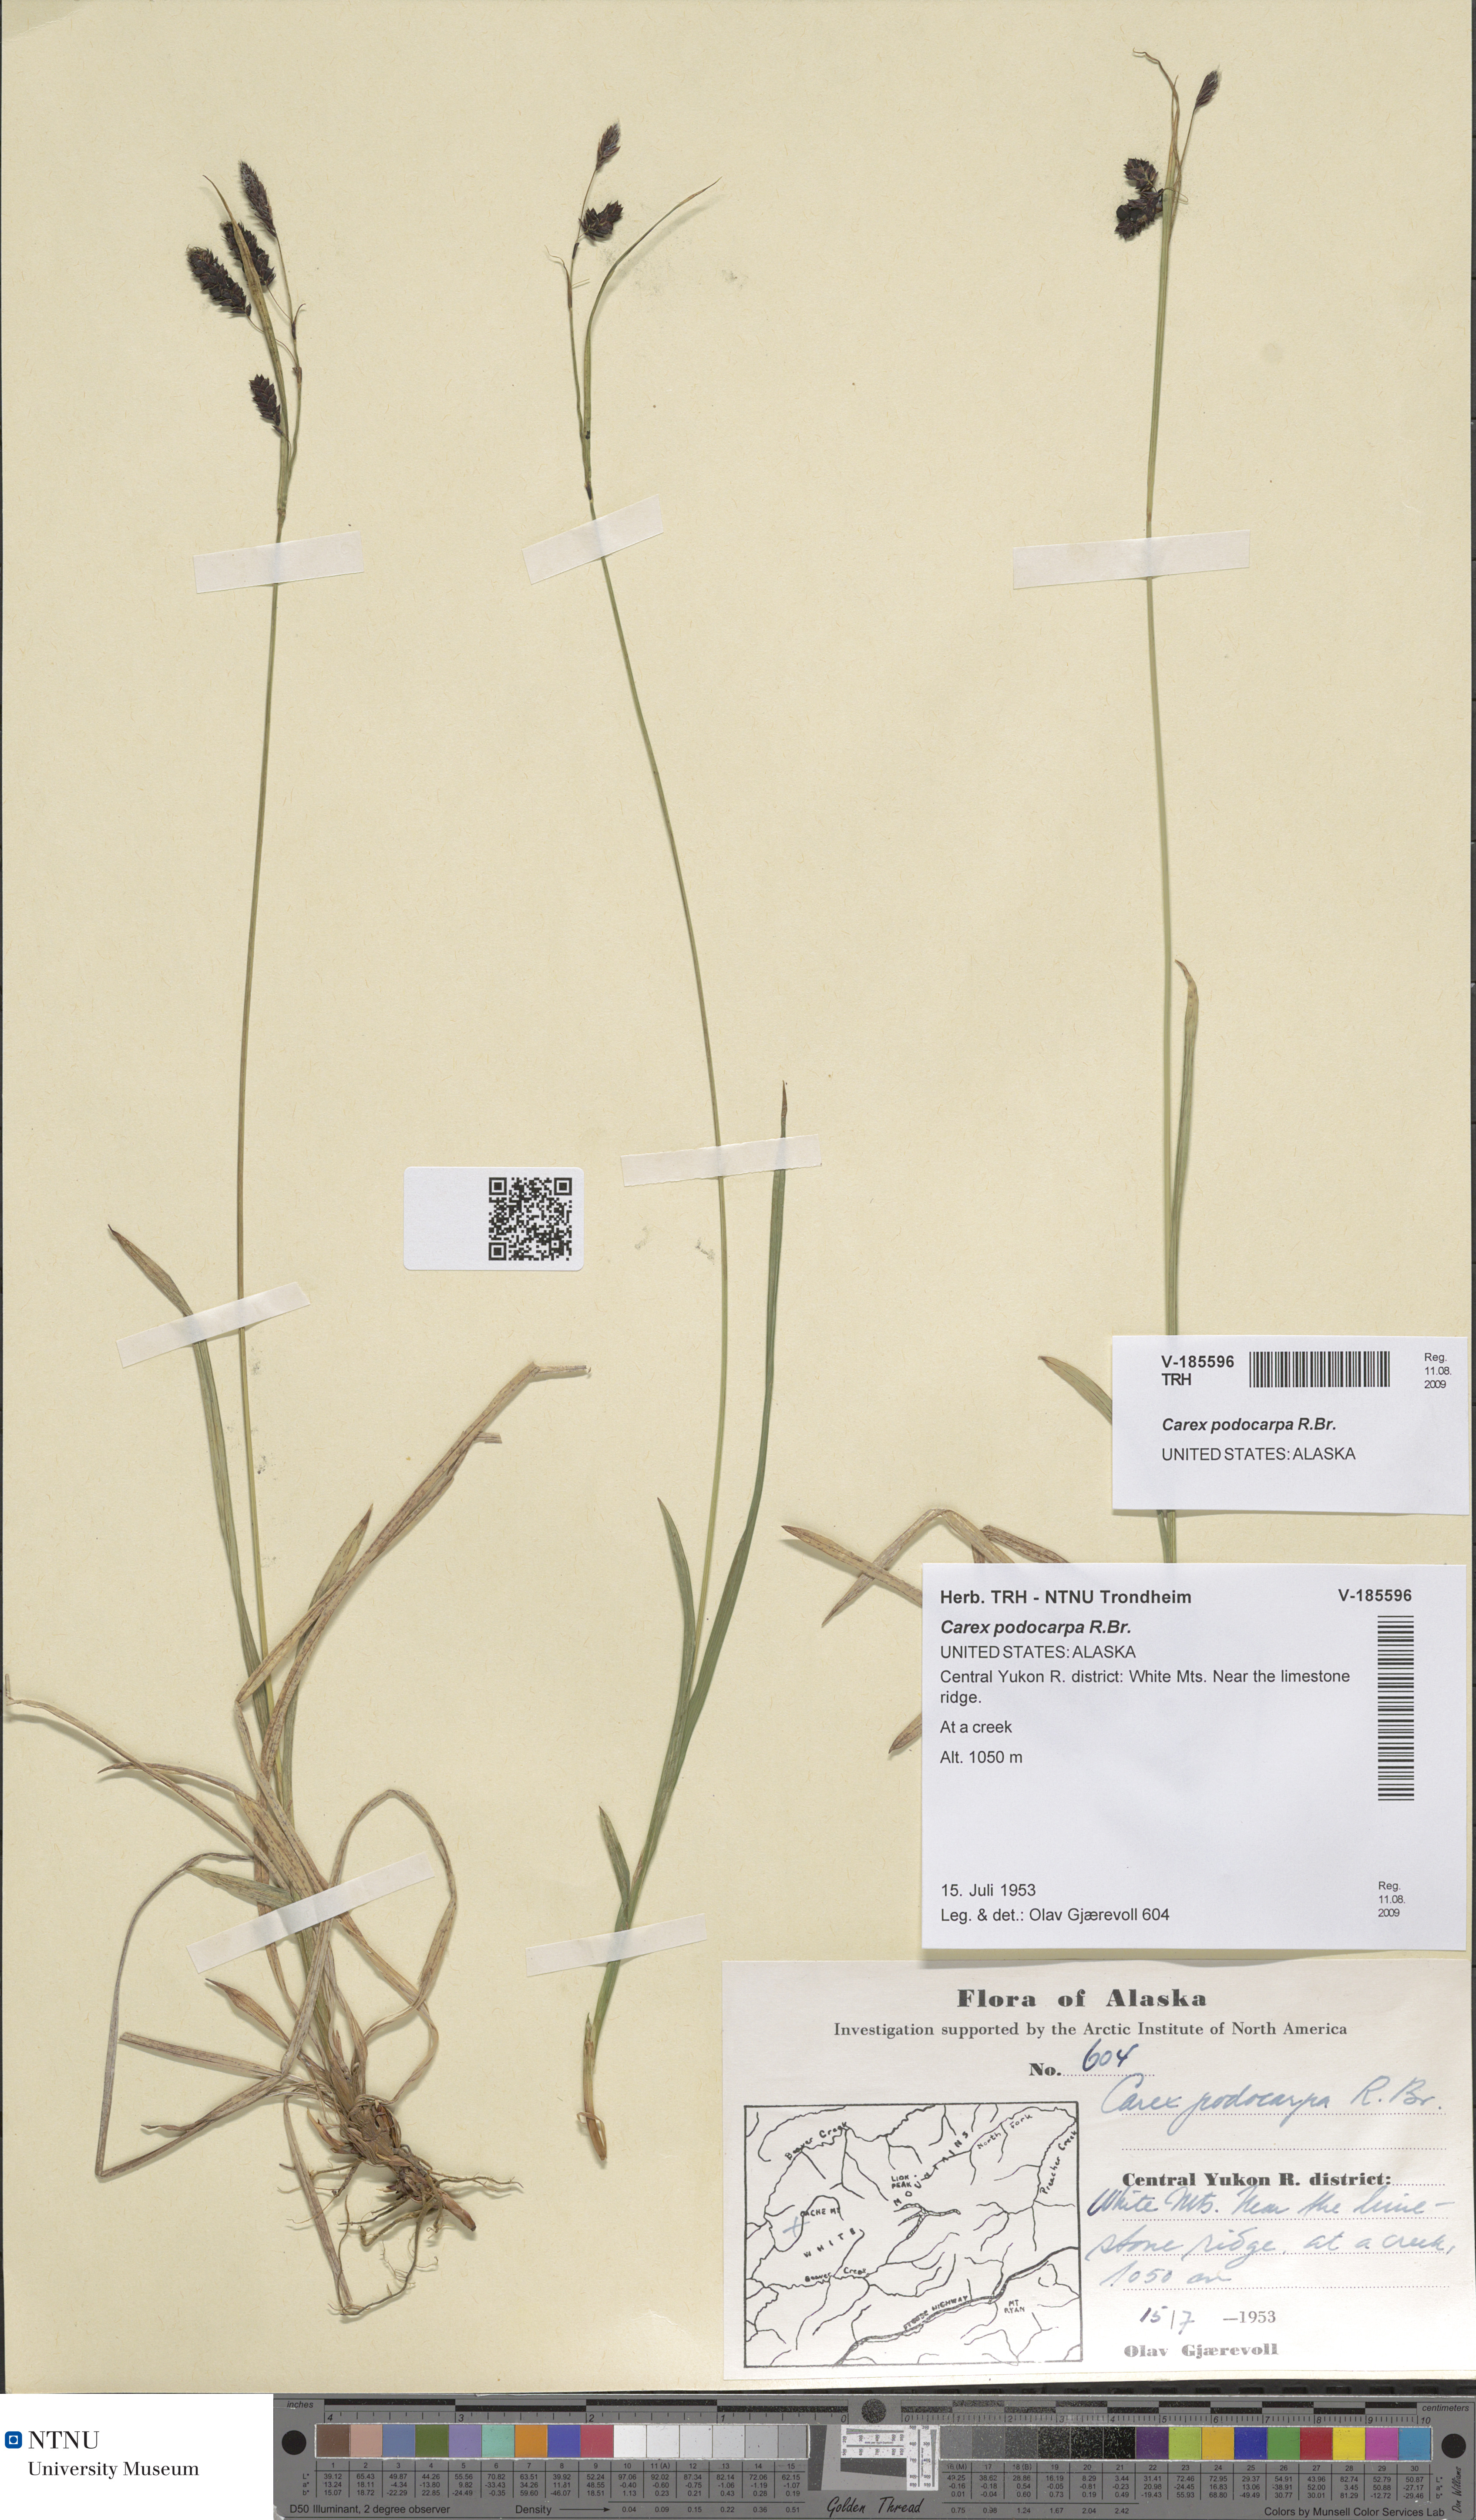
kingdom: Plantae
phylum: Tracheophyta
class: Liliopsida
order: Poales
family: Cyperaceae
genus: Carex
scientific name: Carex podocarpa
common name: Alpine sedge
